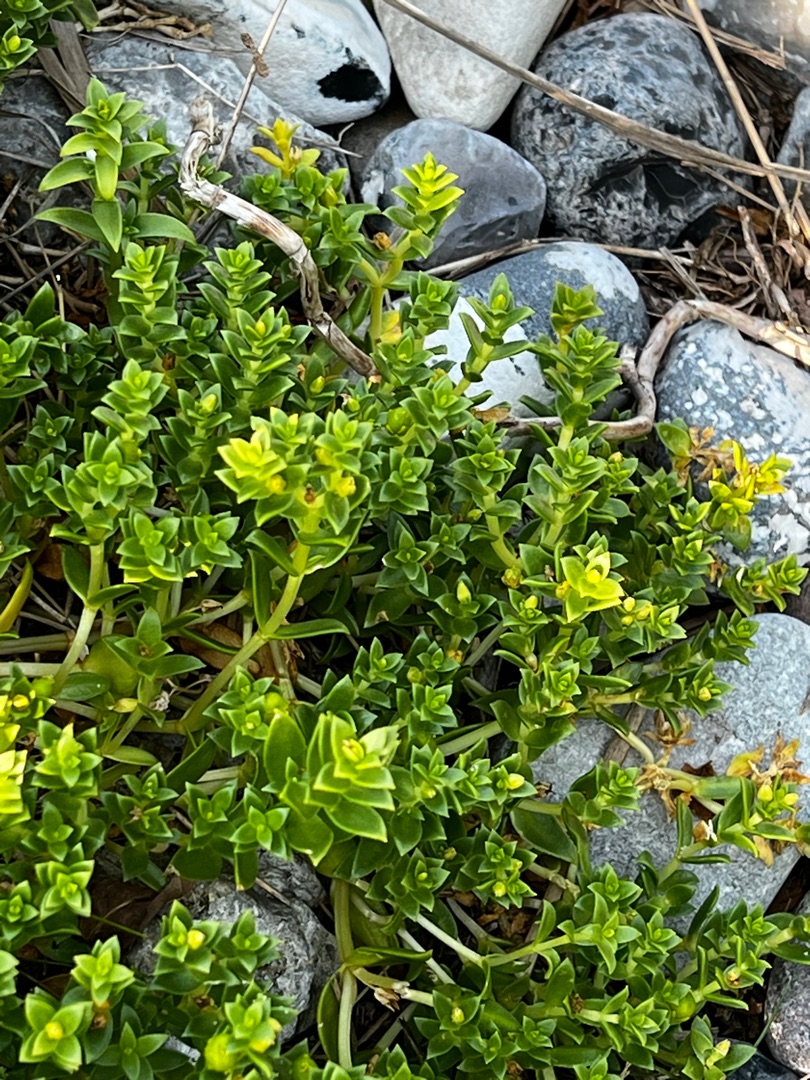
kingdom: Plantae
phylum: Tracheophyta
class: Magnoliopsida
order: Caryophyllales
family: Caryophyllaceae
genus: Honckenya
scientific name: Honckenya peploides
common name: Strandarve
